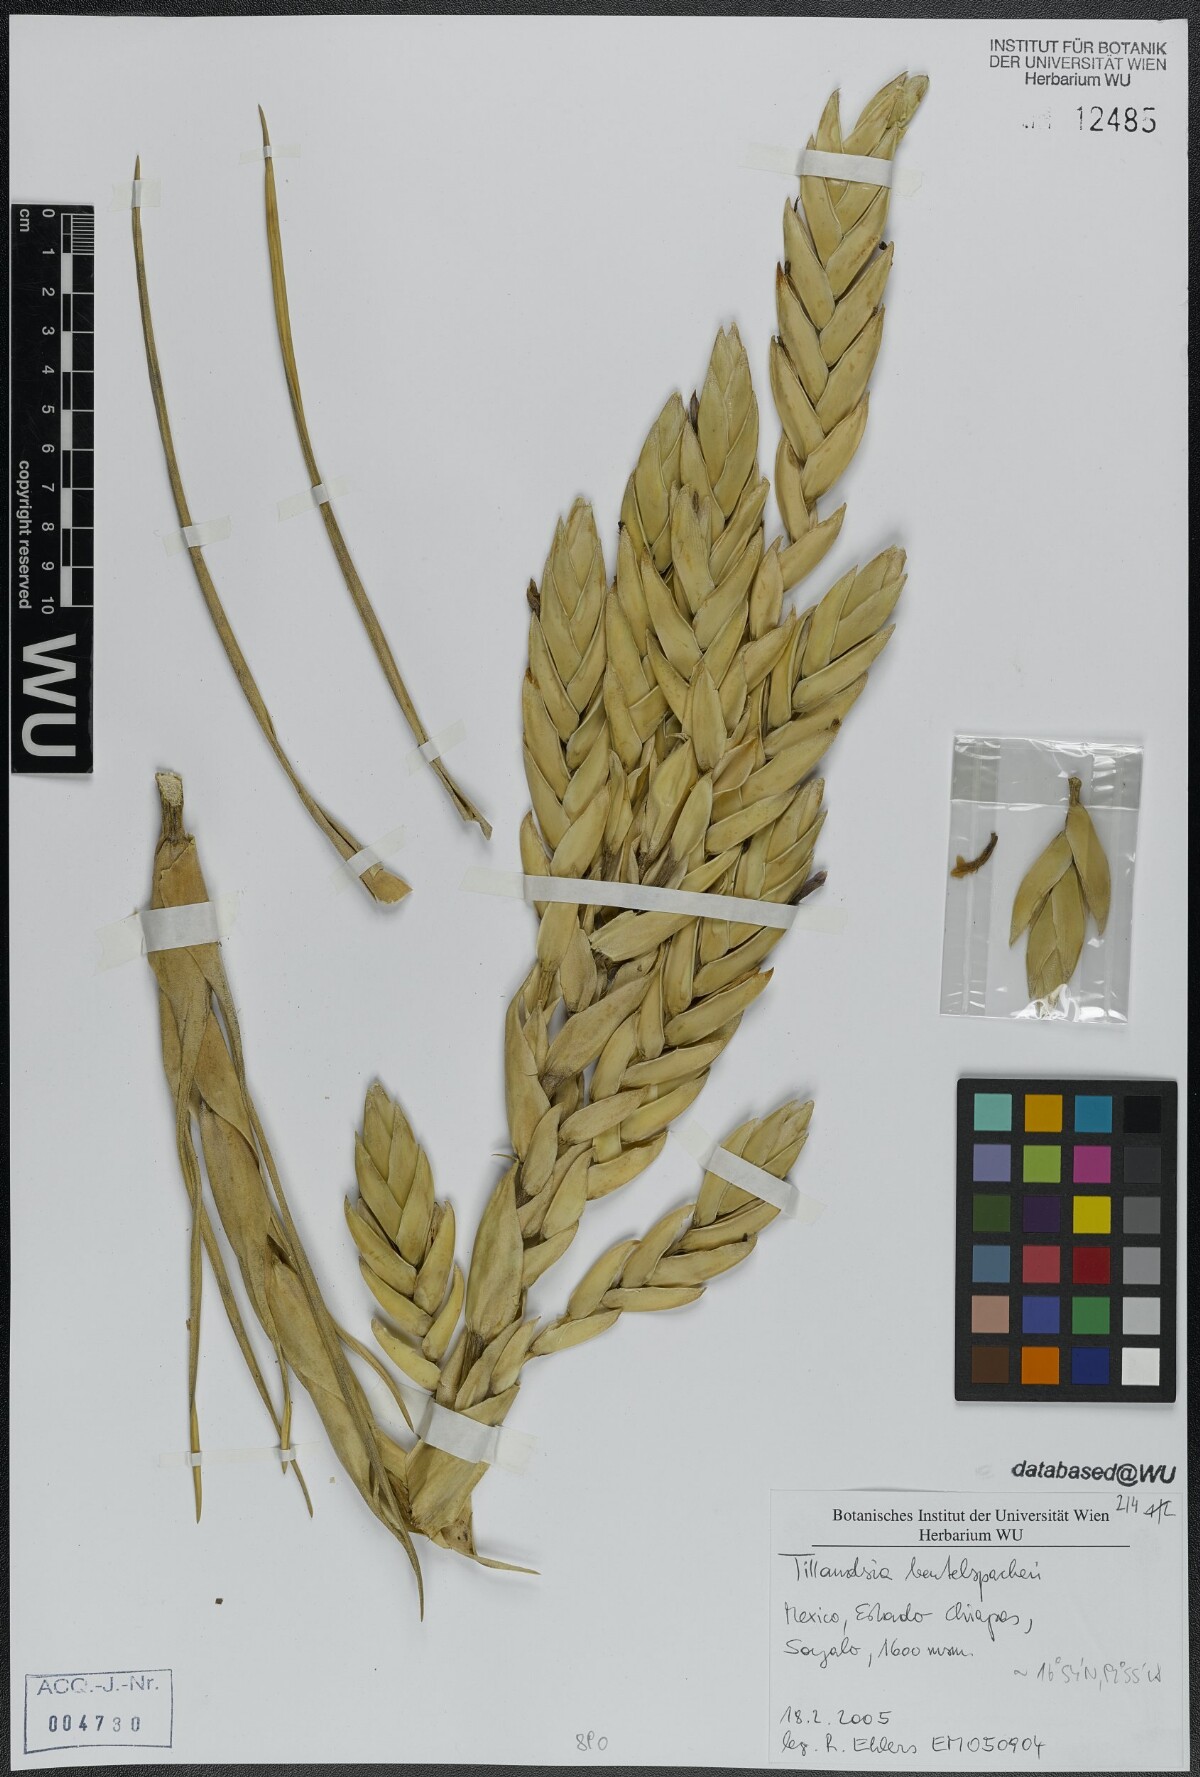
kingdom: Plantae
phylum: Tracheophyta
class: Liliopsida
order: Poales
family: Bromeliaceae
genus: Tillandsia
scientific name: Tillandsia fasciculata
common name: Giant airplant
